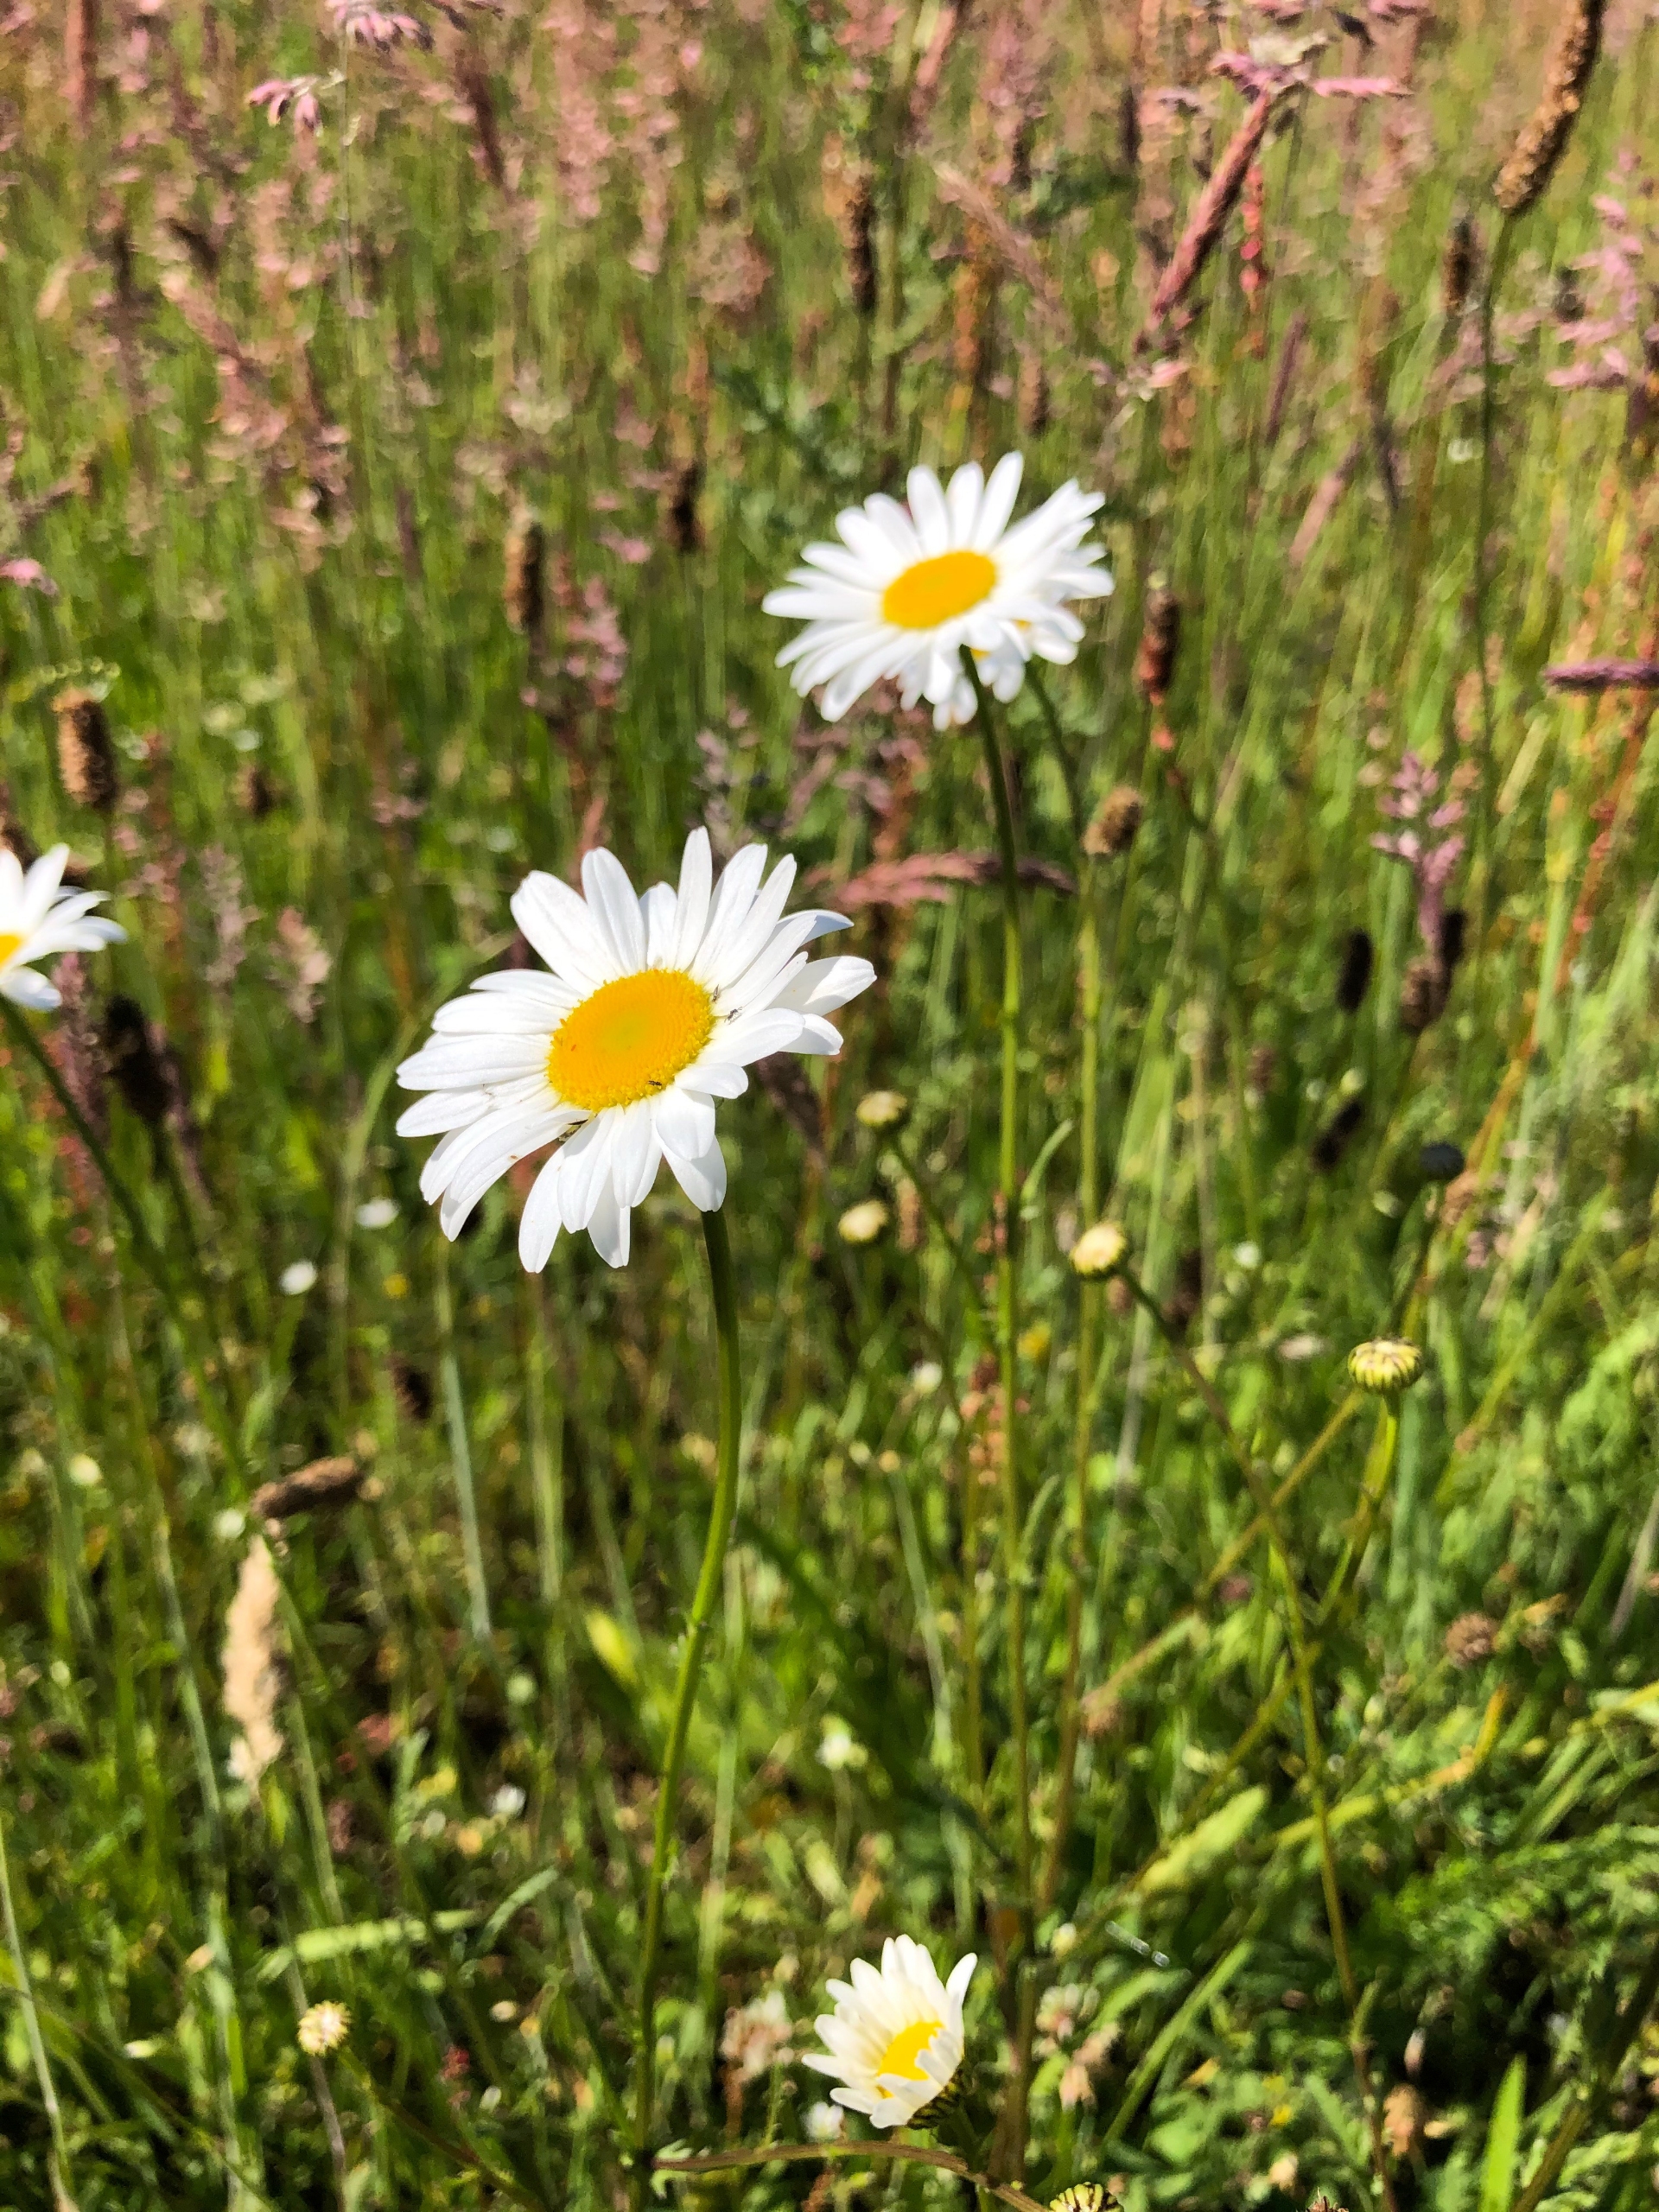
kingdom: Plantae
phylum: Tracheophyta
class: Magnoliopsida
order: Asterales
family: Asteraceae
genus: Leucanthemum
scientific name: Leucanthemum vulgare
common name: Hvid okseøje
